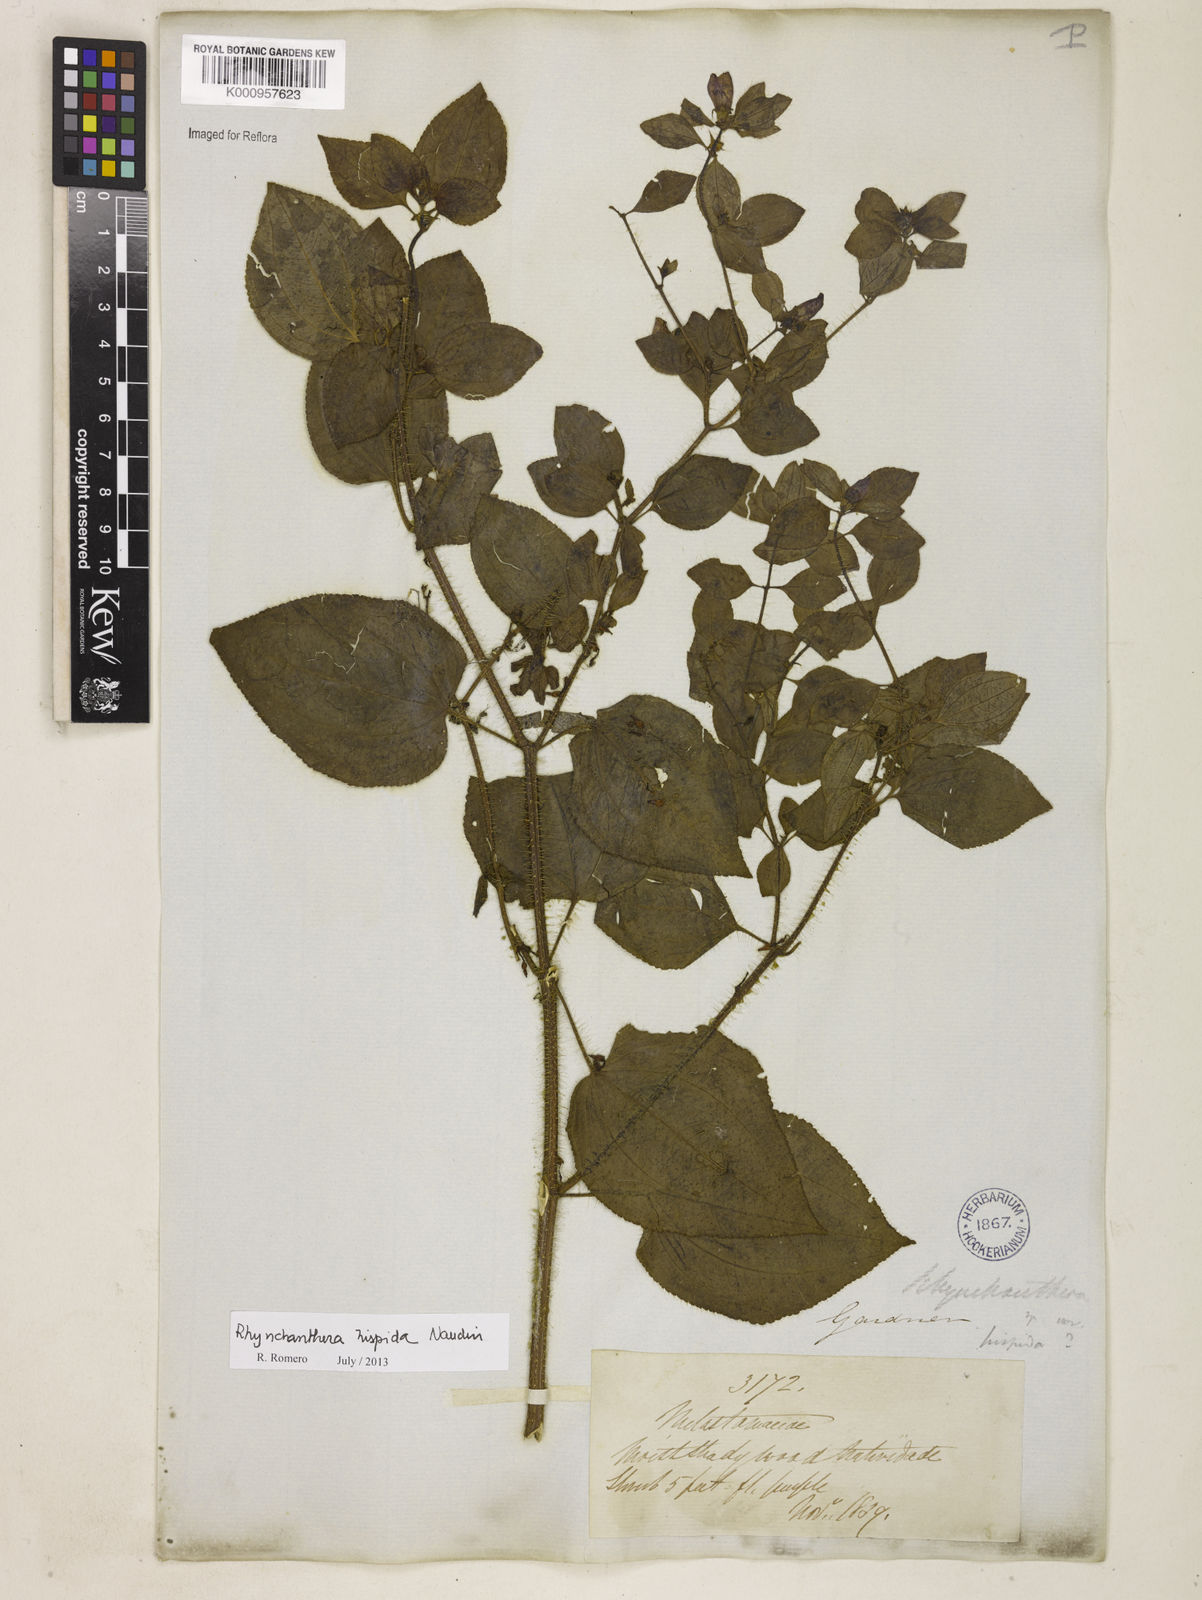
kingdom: Plantae
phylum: Tracheophyta
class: Magnoliopsida
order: Myrtales
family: Melastomataceae
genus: Rhynchanthera
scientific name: Rhynchanthera hispida
